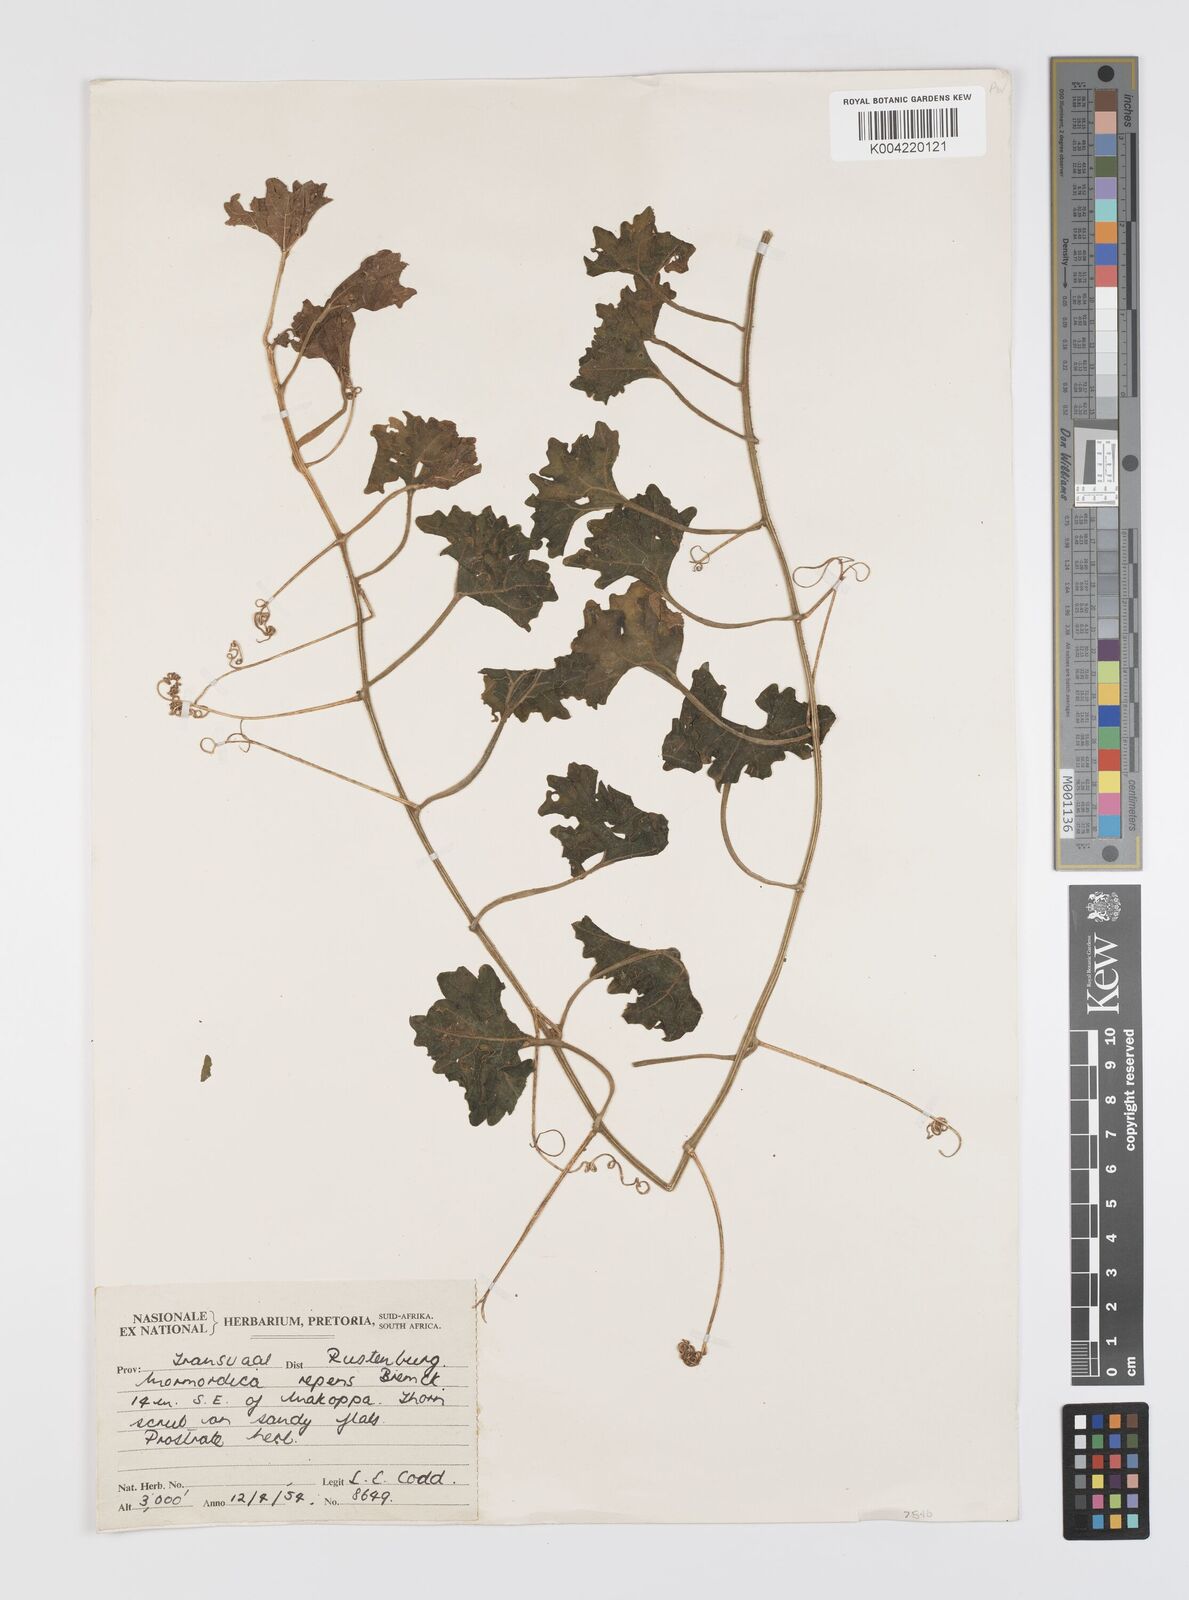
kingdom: Plantae
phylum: Tracheophyta
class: Magnoliopsida
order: Cucurbitales
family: Cucurbitaceae
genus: Momordica
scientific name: Momordica repens
